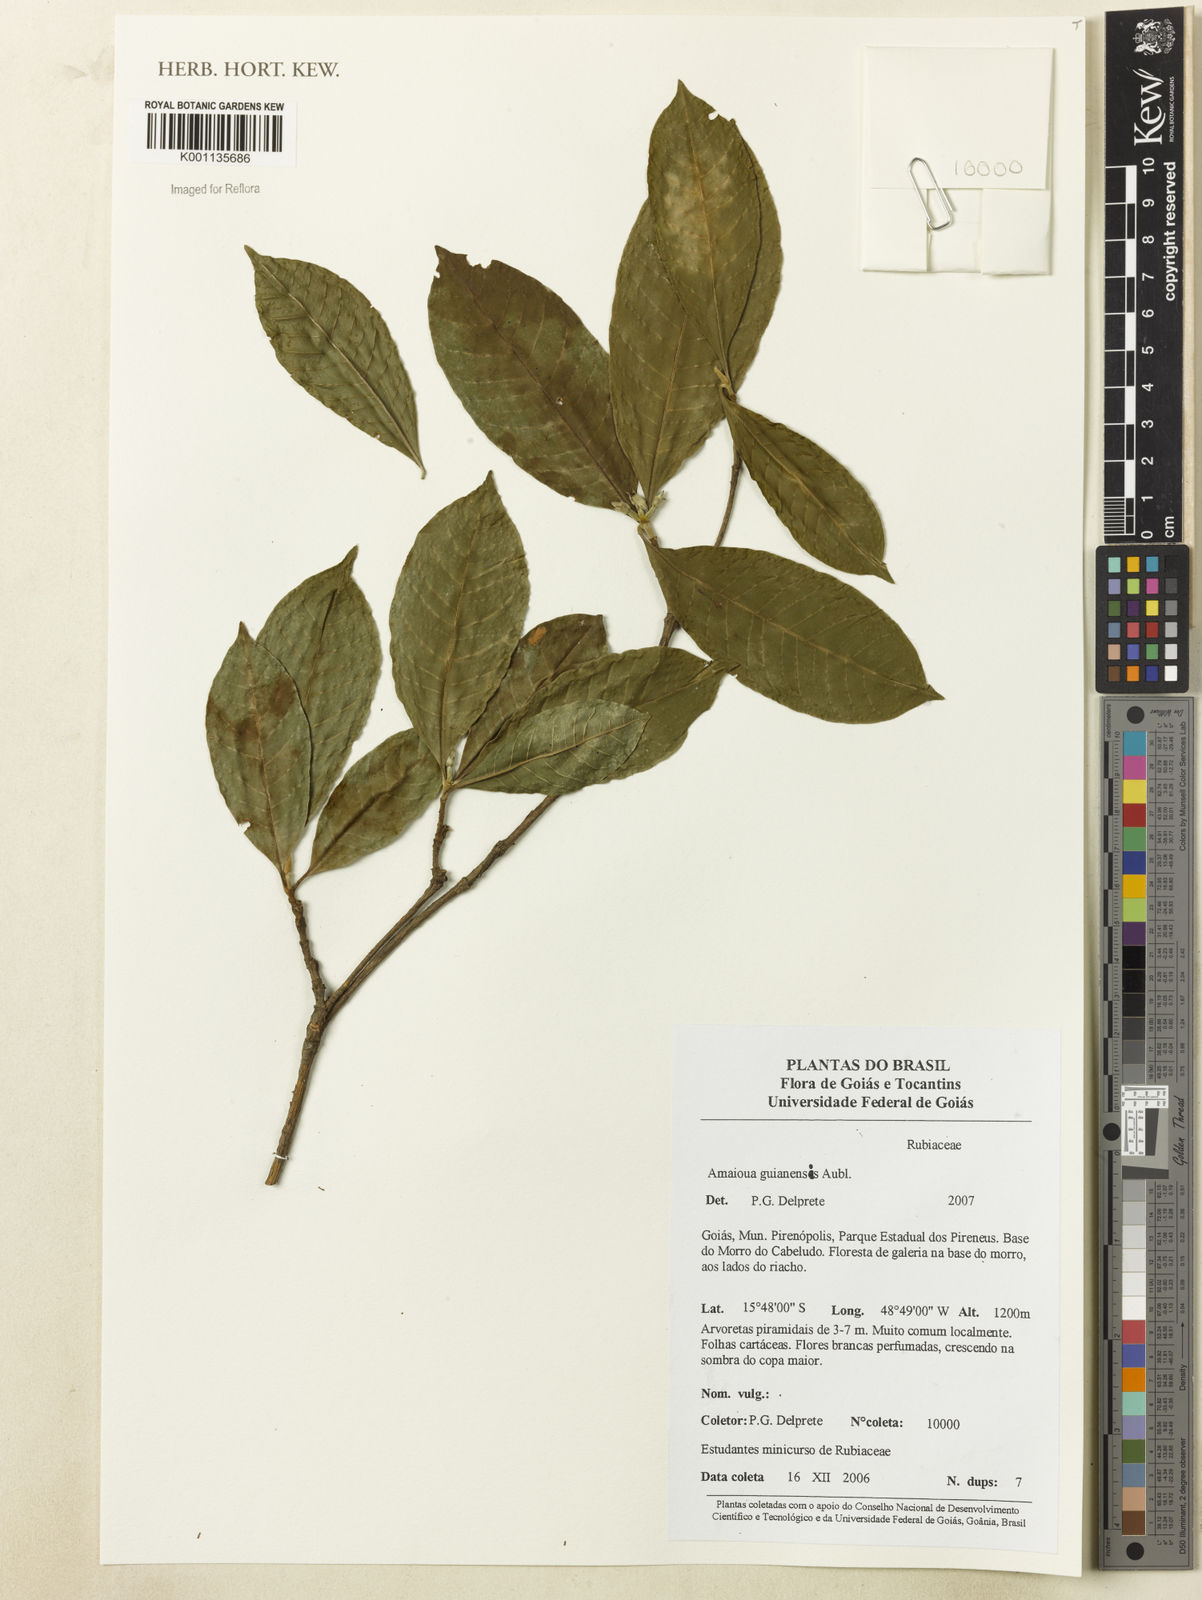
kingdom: Plantae
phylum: Tracheophyta
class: Magnoliopsida
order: Gentianales
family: Rubiaceae
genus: Amaioua
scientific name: Amaioua guianensis
